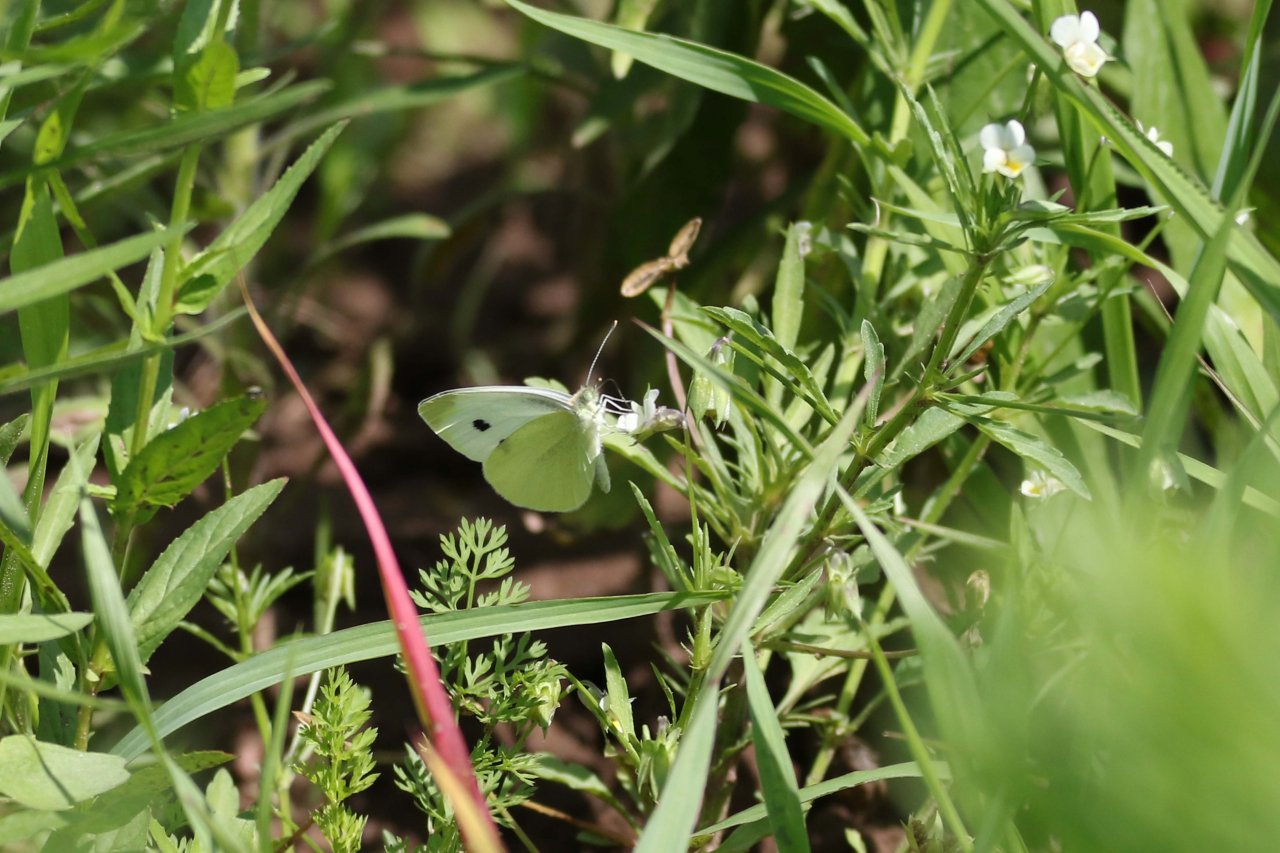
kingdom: Animalia
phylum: Arthropoda
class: Insecta
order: Lepidoptera
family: Pieridae
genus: Pieris
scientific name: Pieris rapae
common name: Cabbage White
